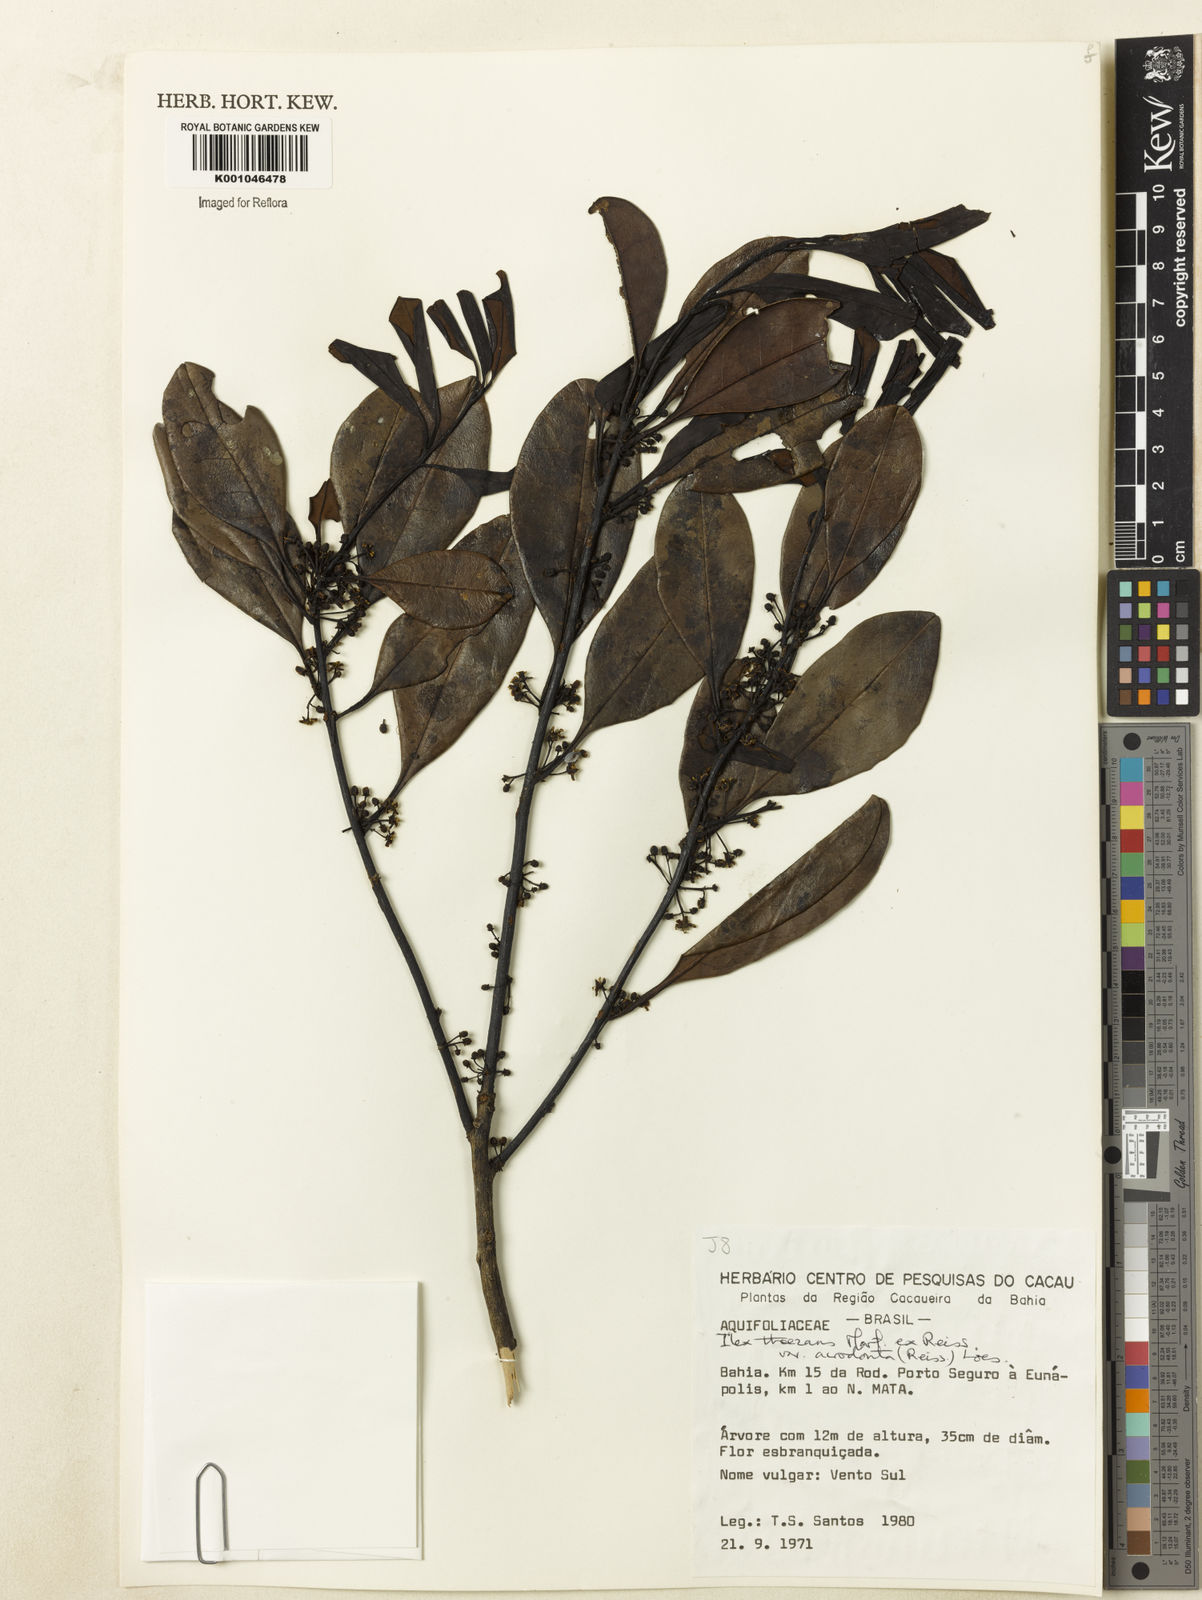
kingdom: Plantae
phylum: Tracheophyta
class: Magnoliopsida
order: Aquifoliales
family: Aquifoliaceae
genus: Ilex
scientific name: Ilex paraguariensis
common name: Paraguay tea
